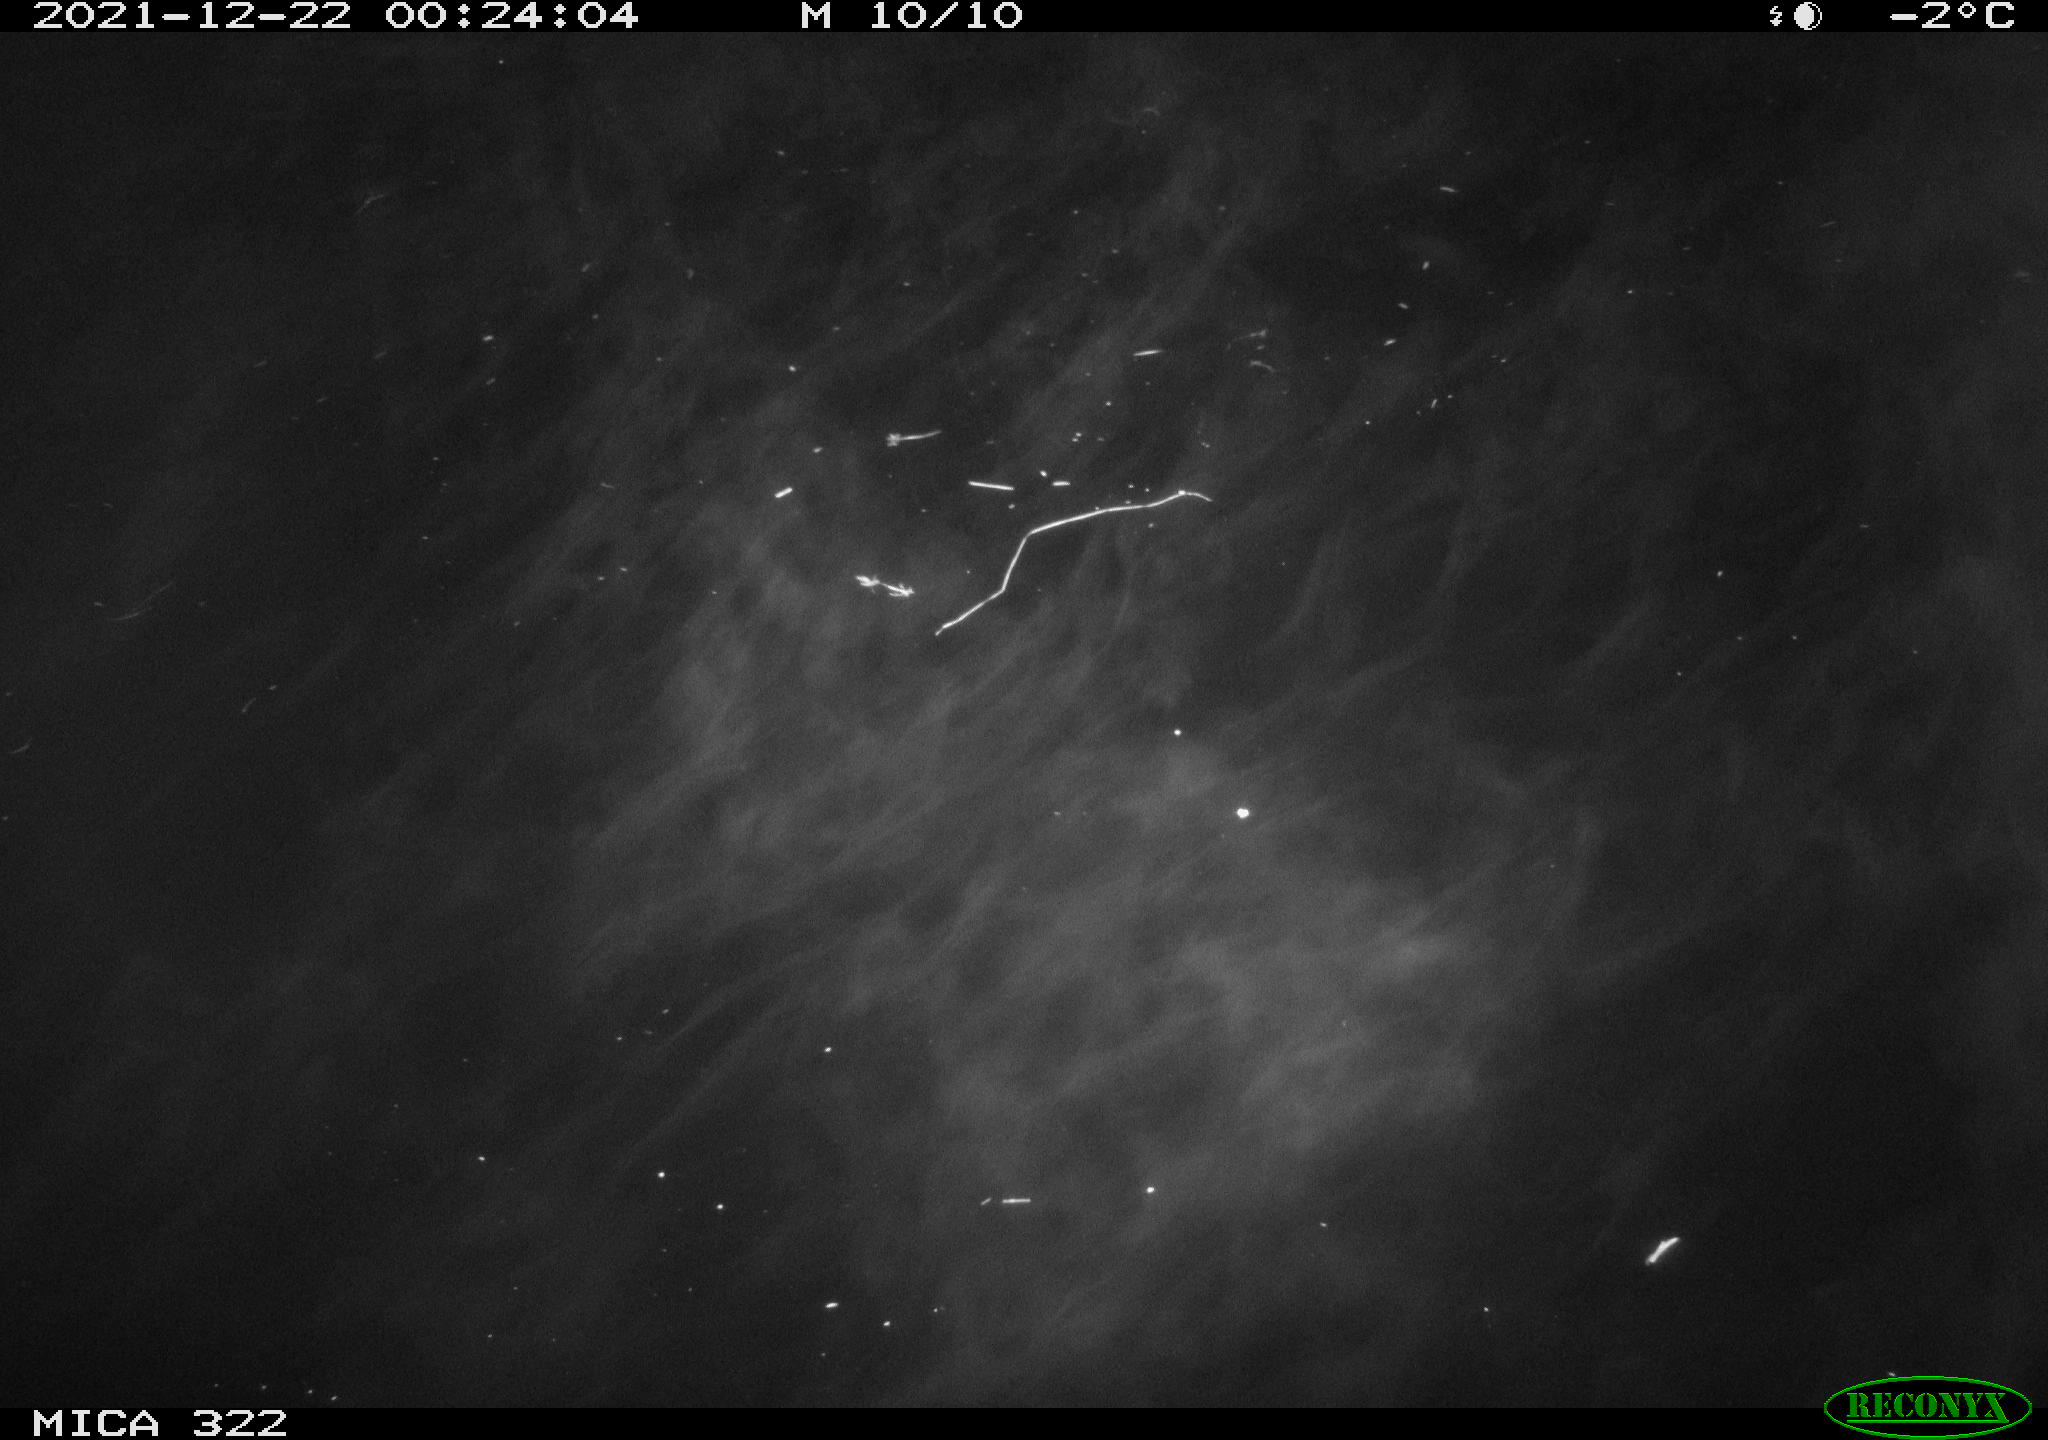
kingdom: Animalia
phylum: Chordata
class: Aves
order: Anseriformes
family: Anatidae
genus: Anas
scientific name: Anas
